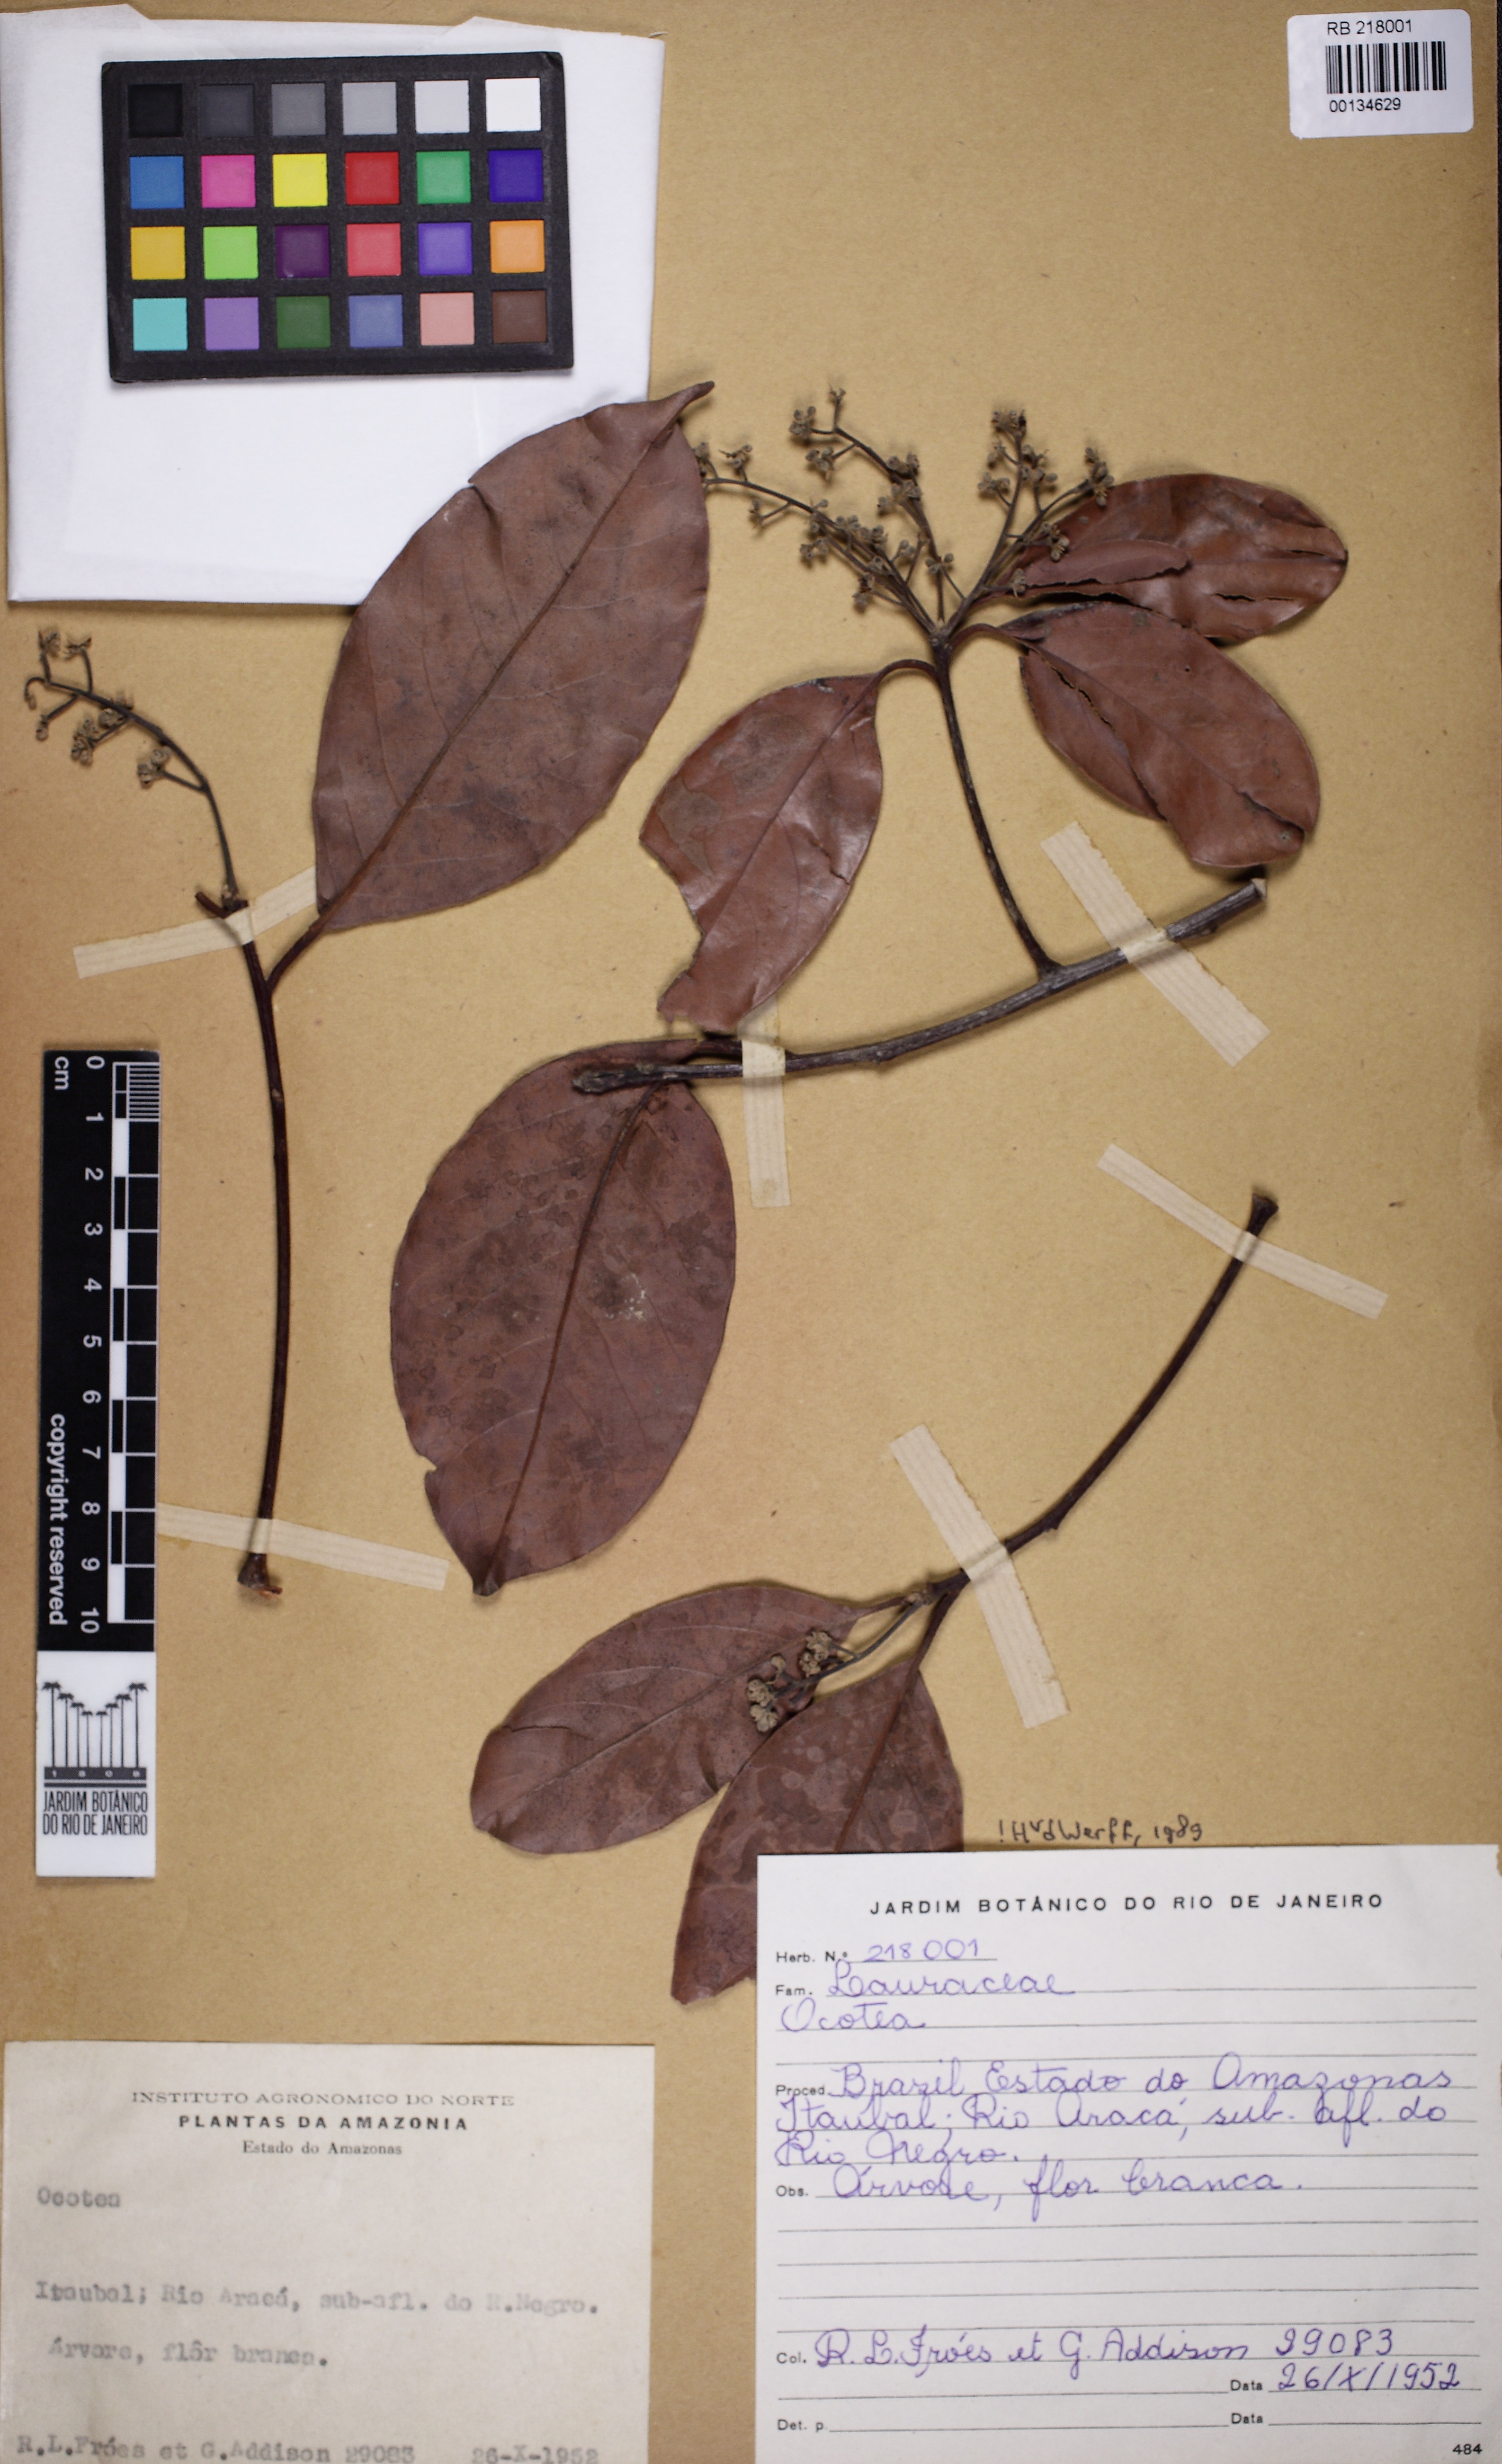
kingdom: Plantae
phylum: Tracheophyta
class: Magnoliopsida
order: Laurales
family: Lauraceae
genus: Ocotea
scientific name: Ocotea
